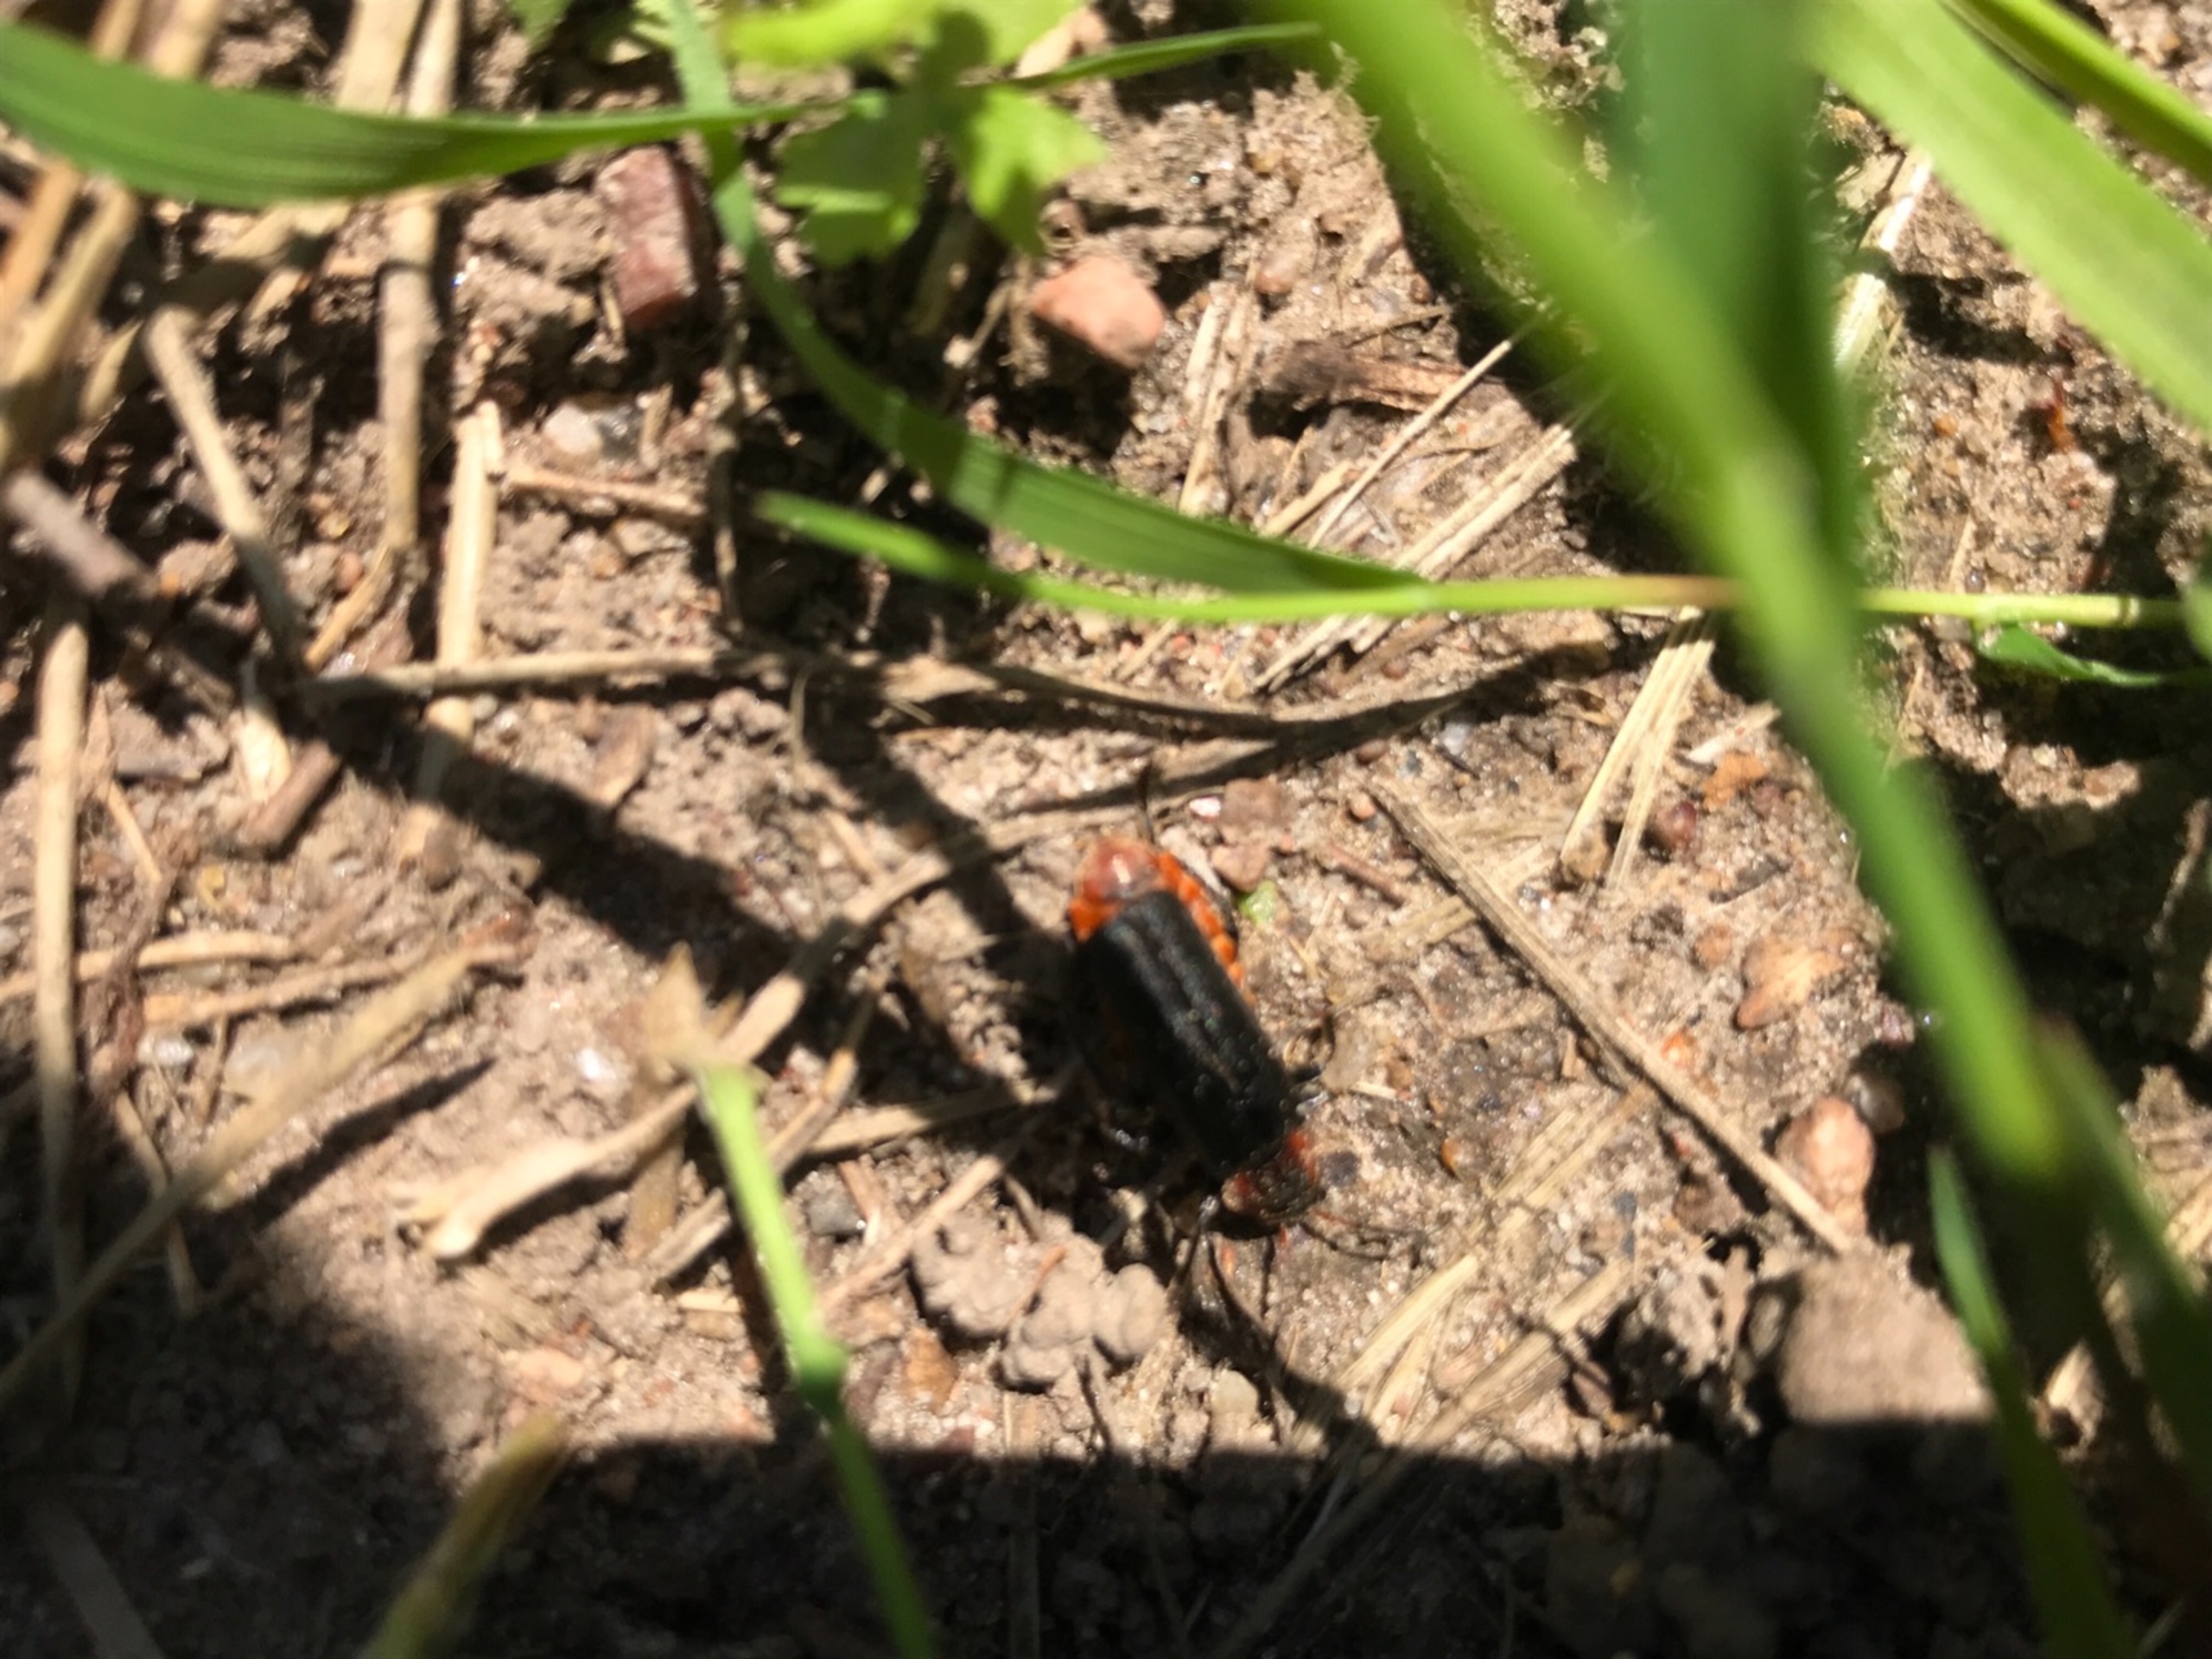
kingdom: Animalia
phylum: Arthropoda
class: Insecta
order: Coleoptera
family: Cantharidae
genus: Cantharis
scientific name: Cantharis fusca
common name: Stor blødvinge
